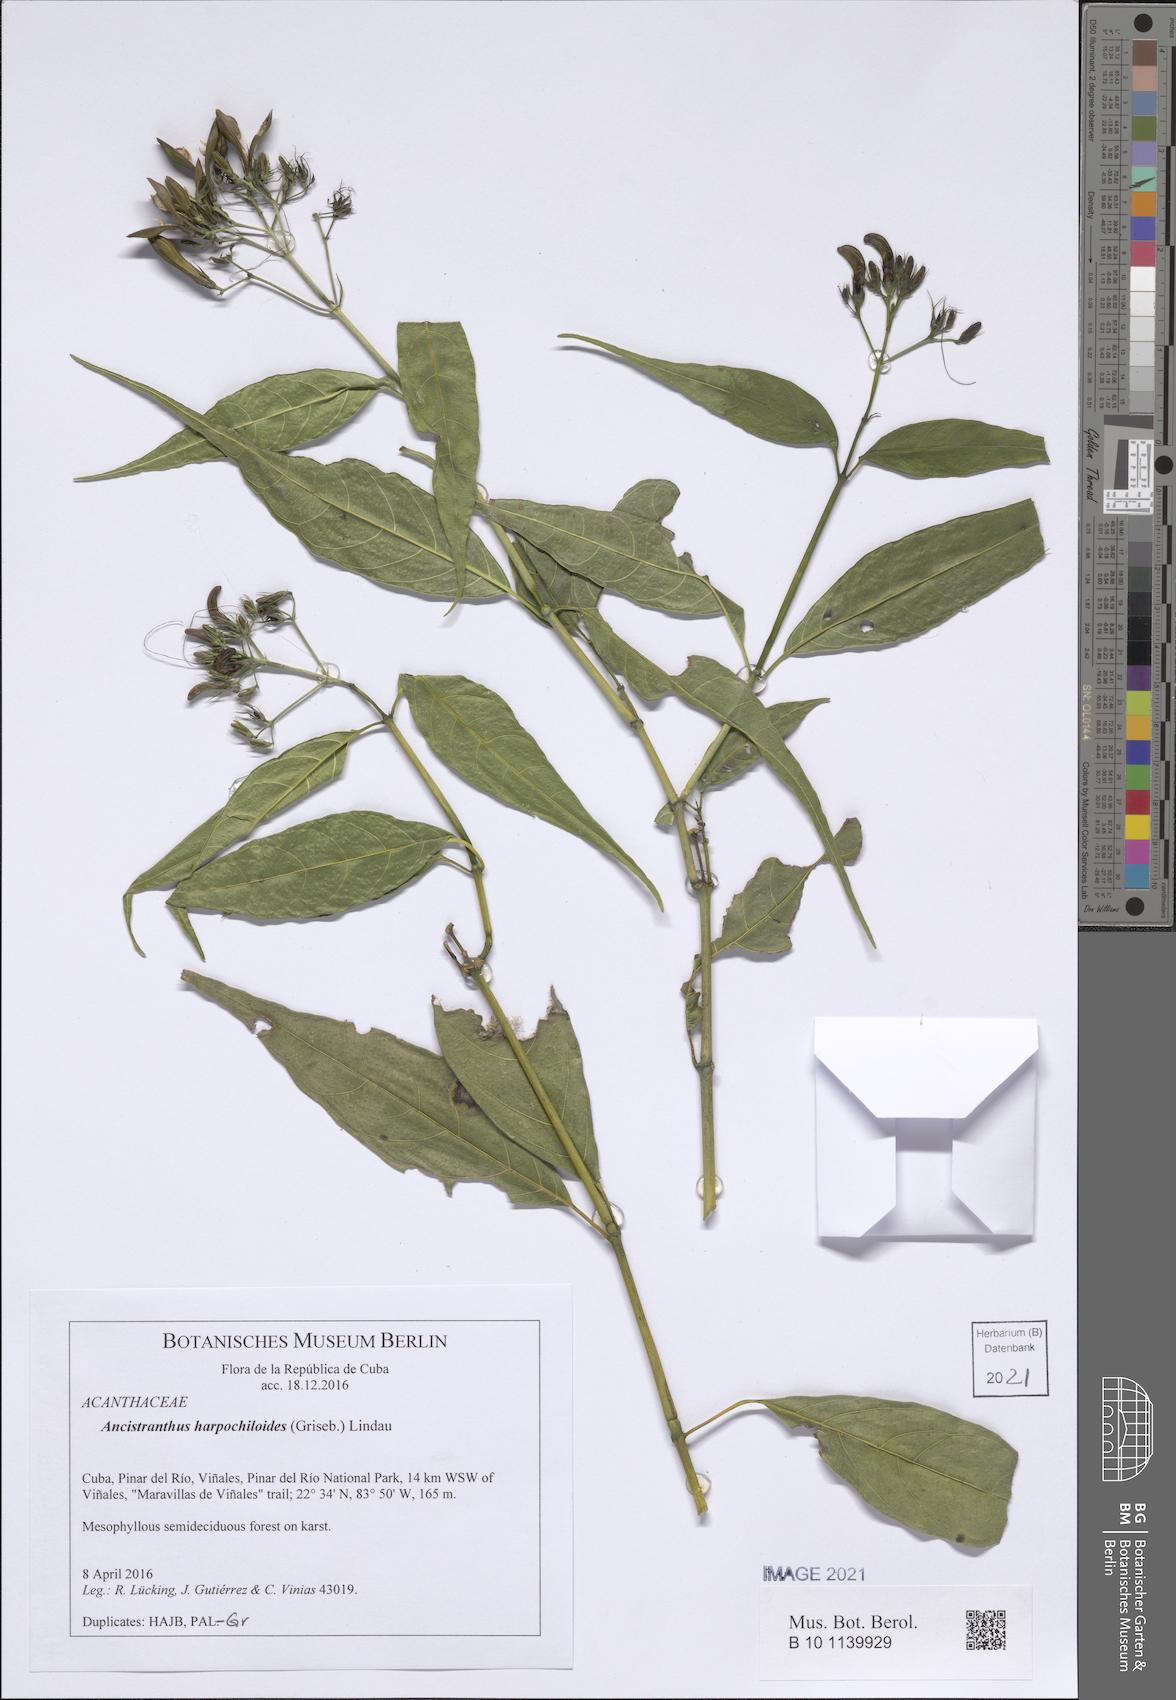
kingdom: Plantae
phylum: Tracheophyta
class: Magnoliopsida
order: Lamiales
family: Acanthaceae
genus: Ancistranthus
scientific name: Ancistranthus harpochiloides
